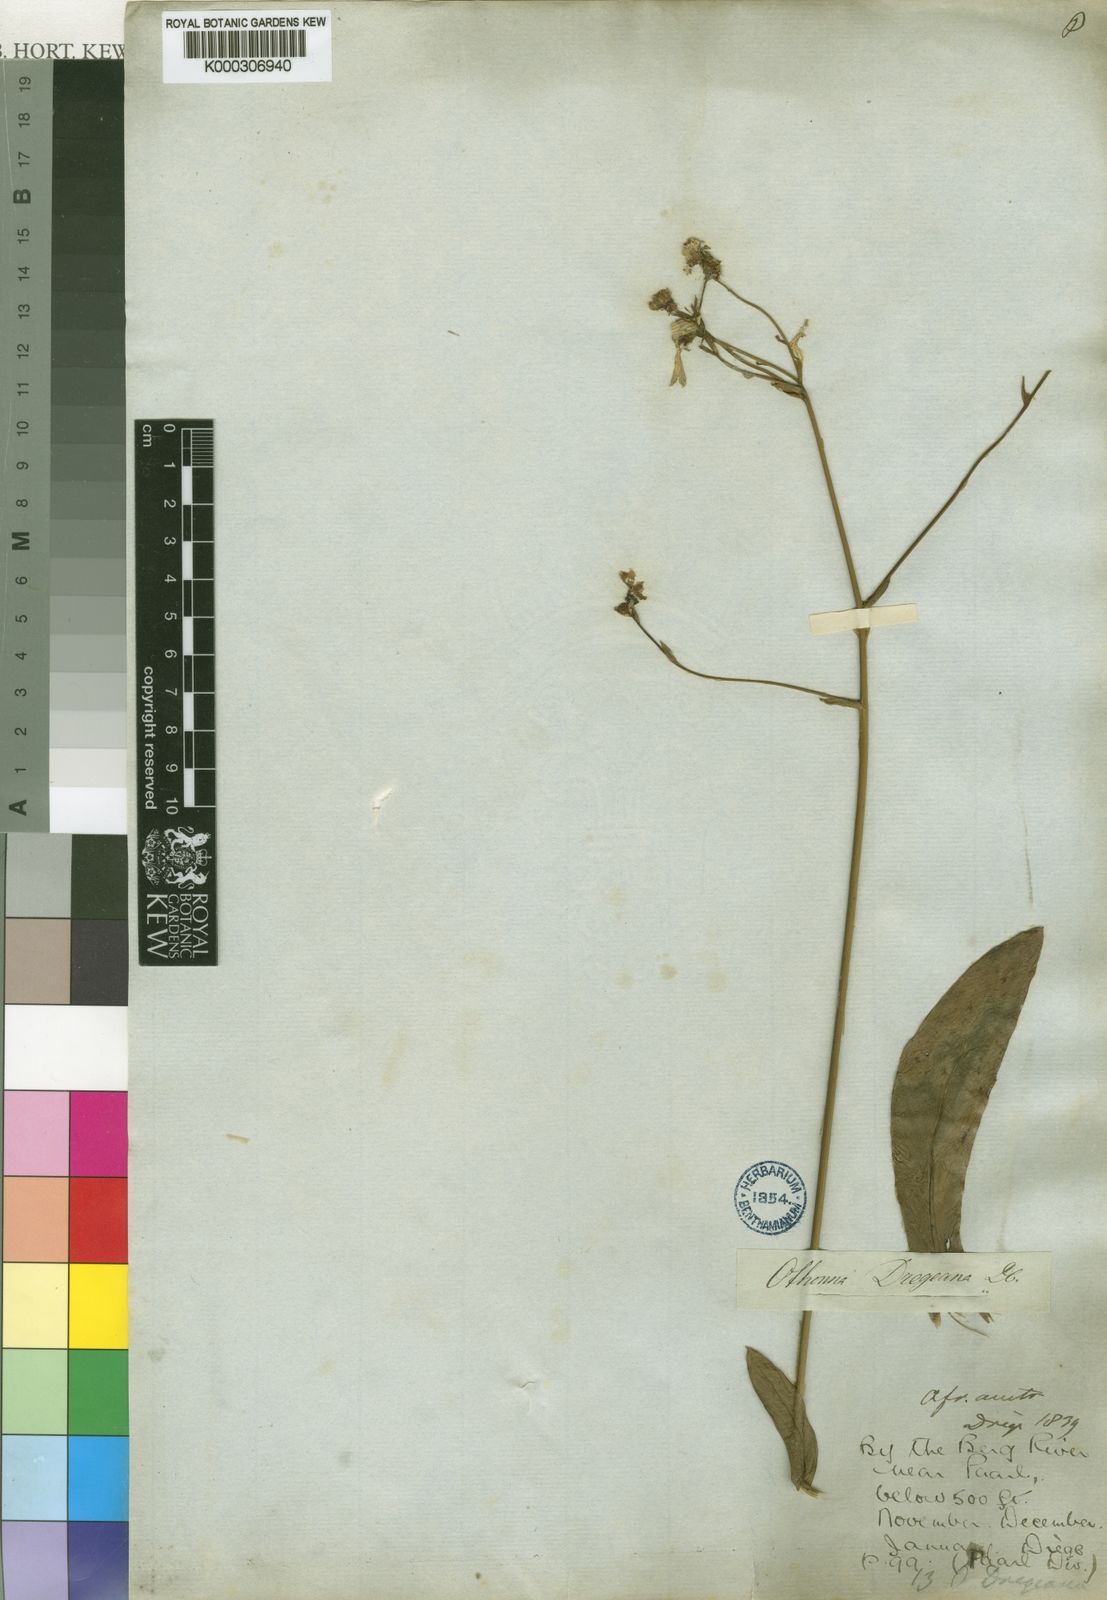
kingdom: Plantae
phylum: Tracheophyta
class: Magnoliopsida
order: Asterales
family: Asteraceae
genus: Othonna
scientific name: Othonna parviflora
